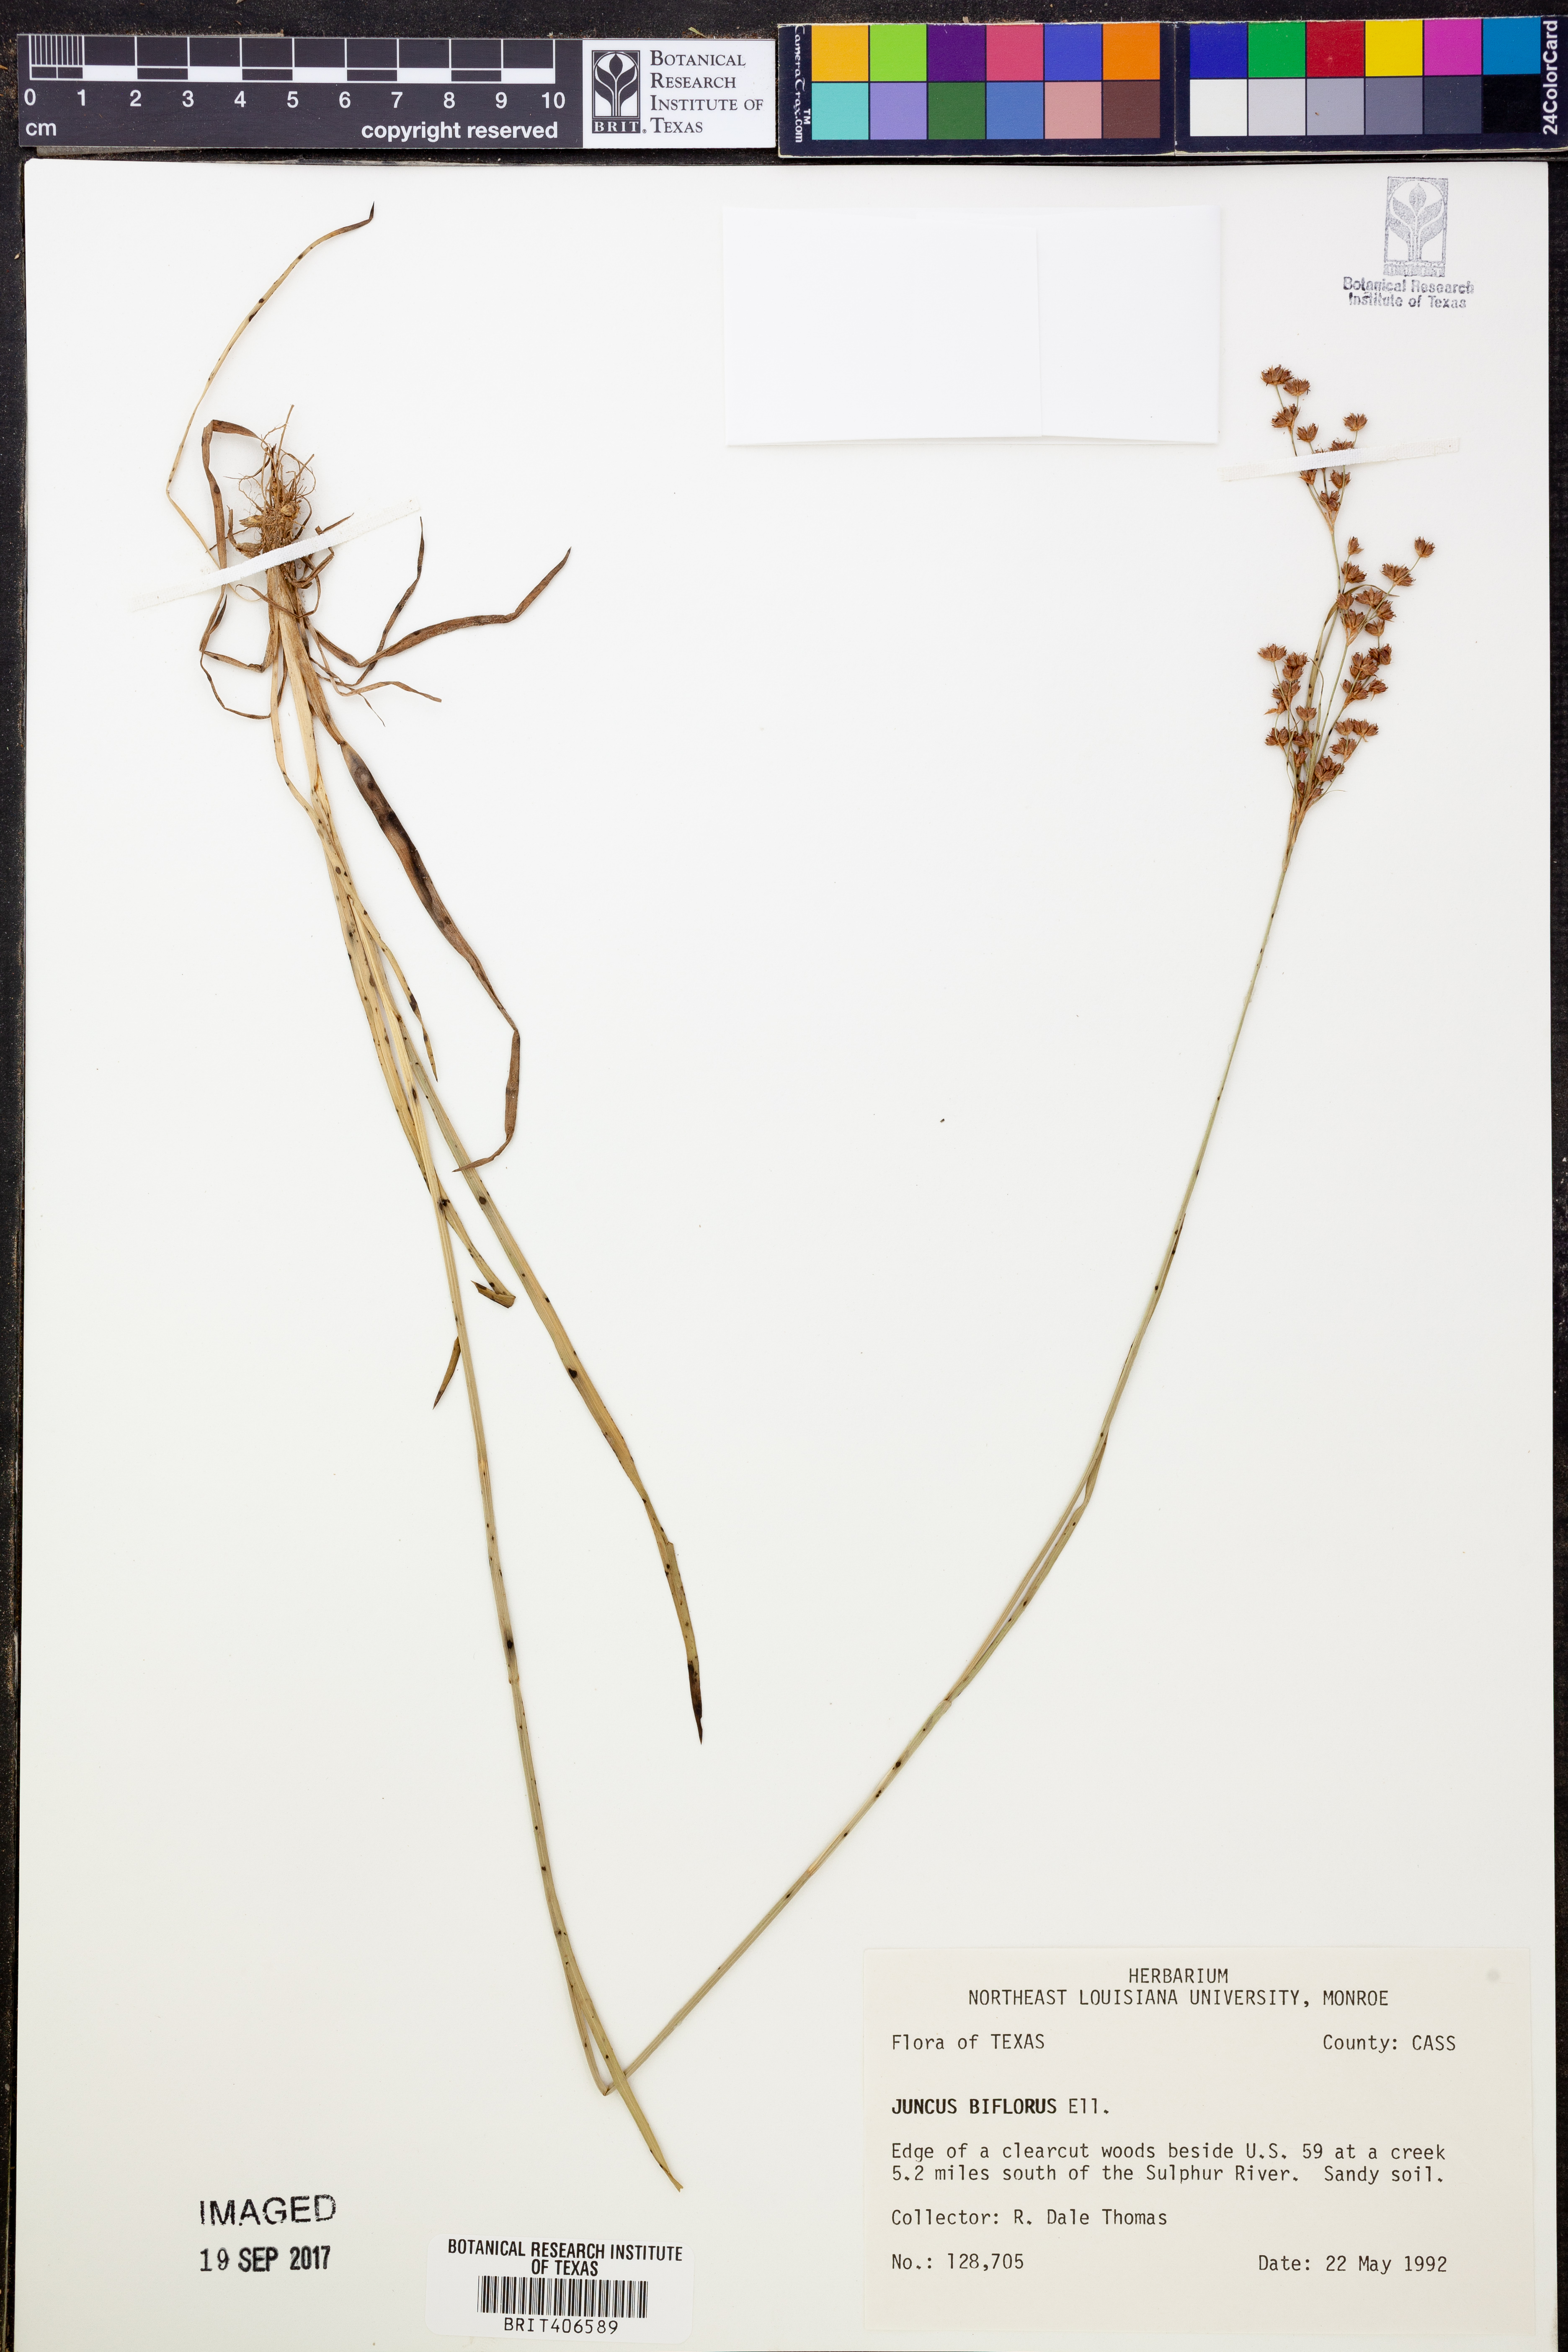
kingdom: Plantae
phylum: Tracheophyta
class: Liliopsida
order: Poales
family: Juncaceae
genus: Juncus
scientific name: Juncus biflorus
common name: Two-flowered rush
